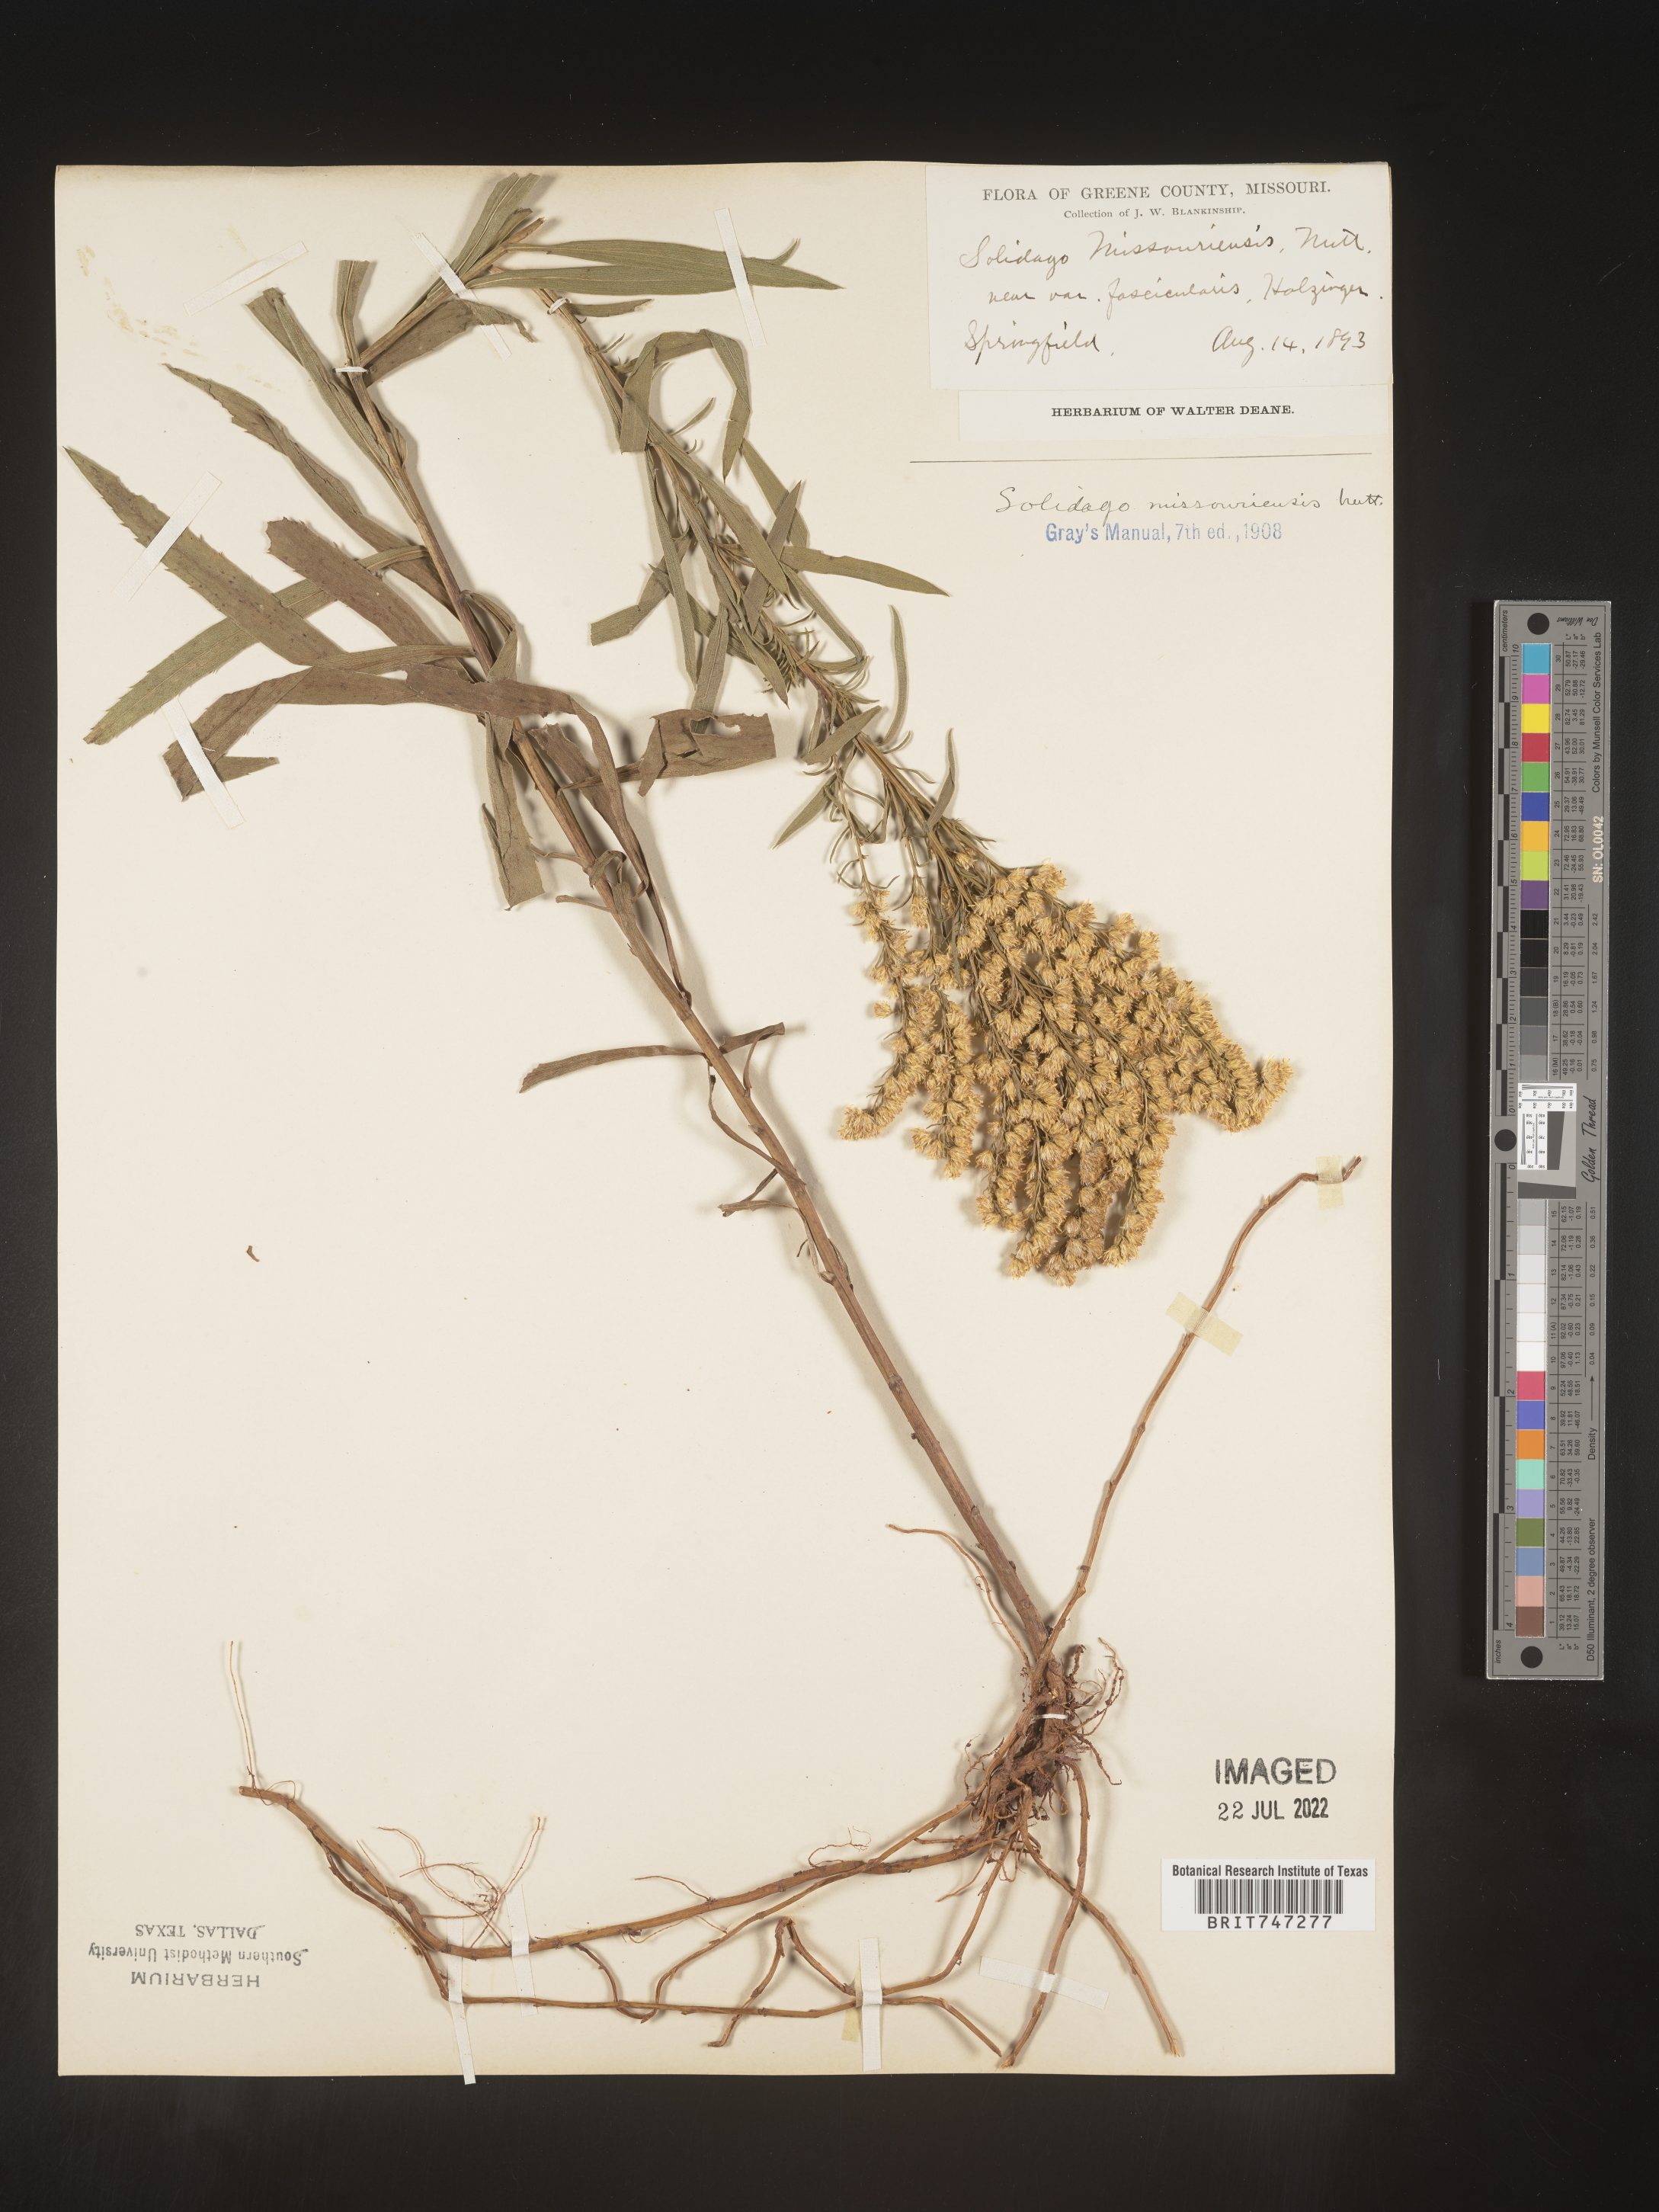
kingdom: Plantae
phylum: Tracheophyta
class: Magnoliopsida
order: Asterales
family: Asteraceae
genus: Solidago
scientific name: Solidago missouriensis
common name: Prairie goldenrod
